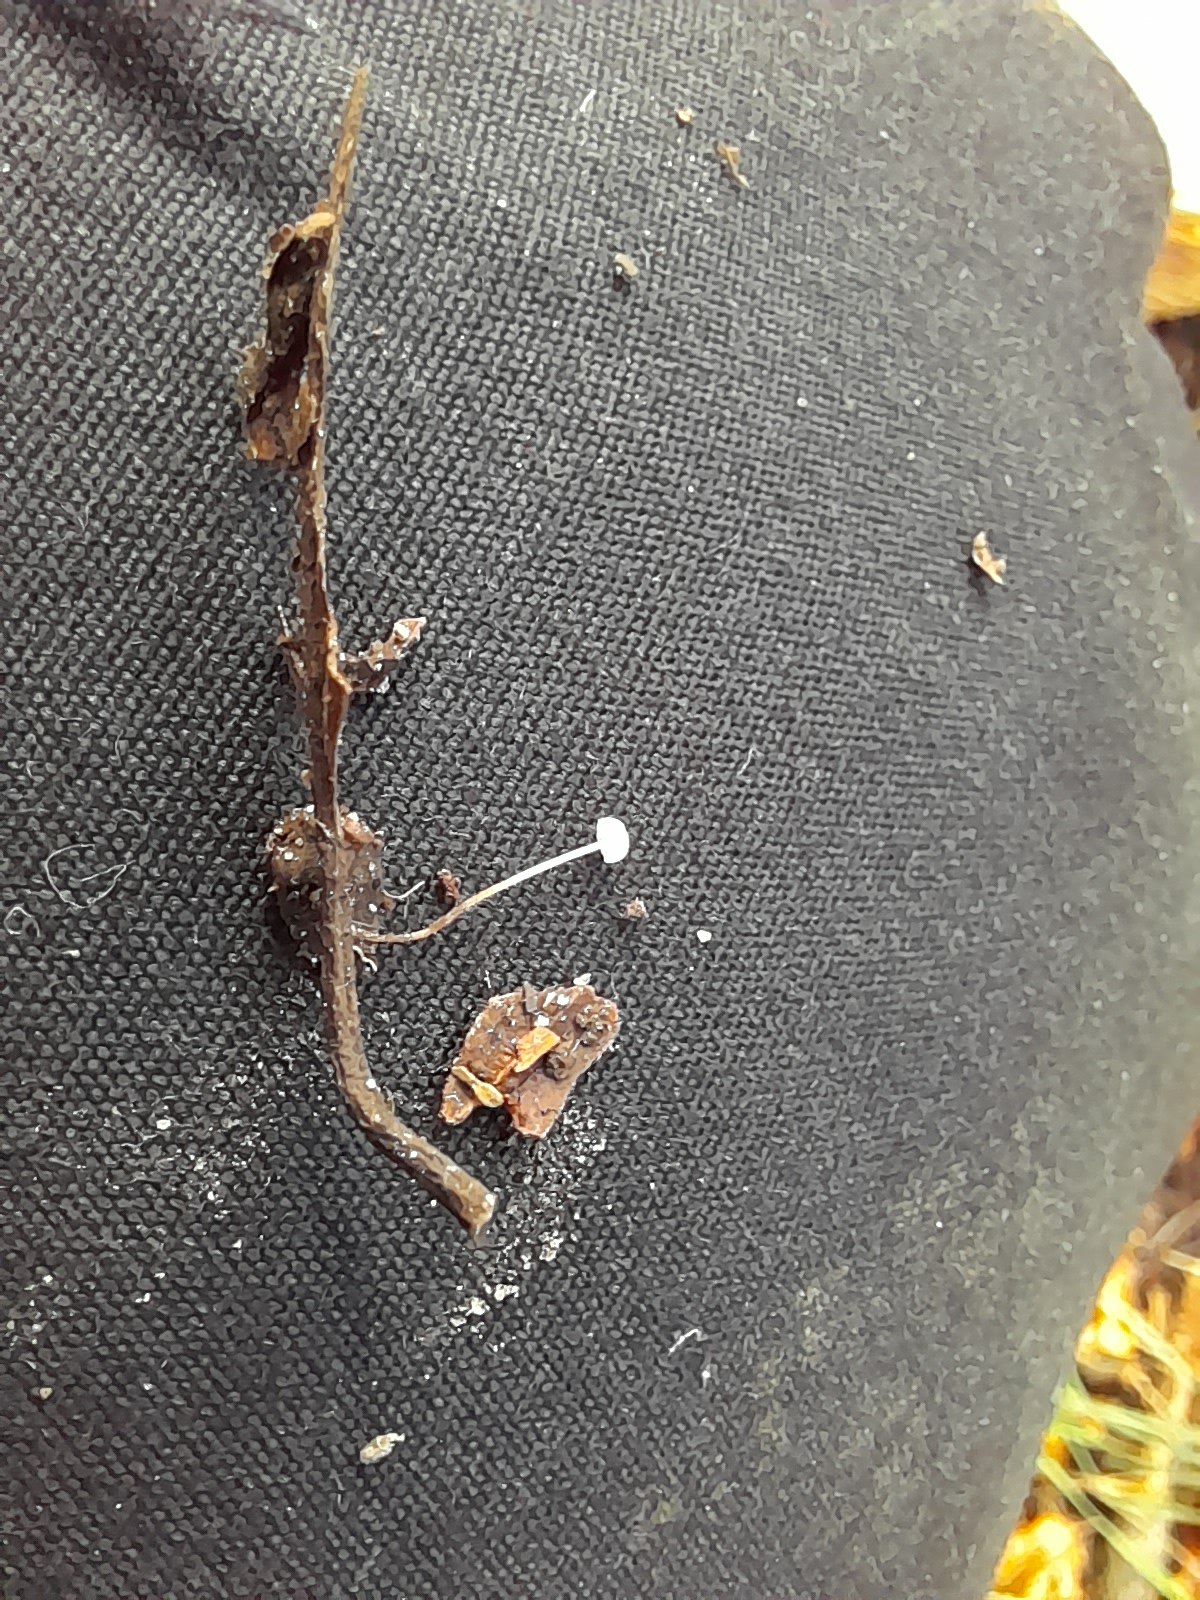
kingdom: Fungi
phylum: Basidiomycota
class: Agaricomycetes
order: Agaricales
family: Physalacriaceae
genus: Rhizomarasmius
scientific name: Rhizomarasmius setosus
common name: bøgeblads-bruskhat
